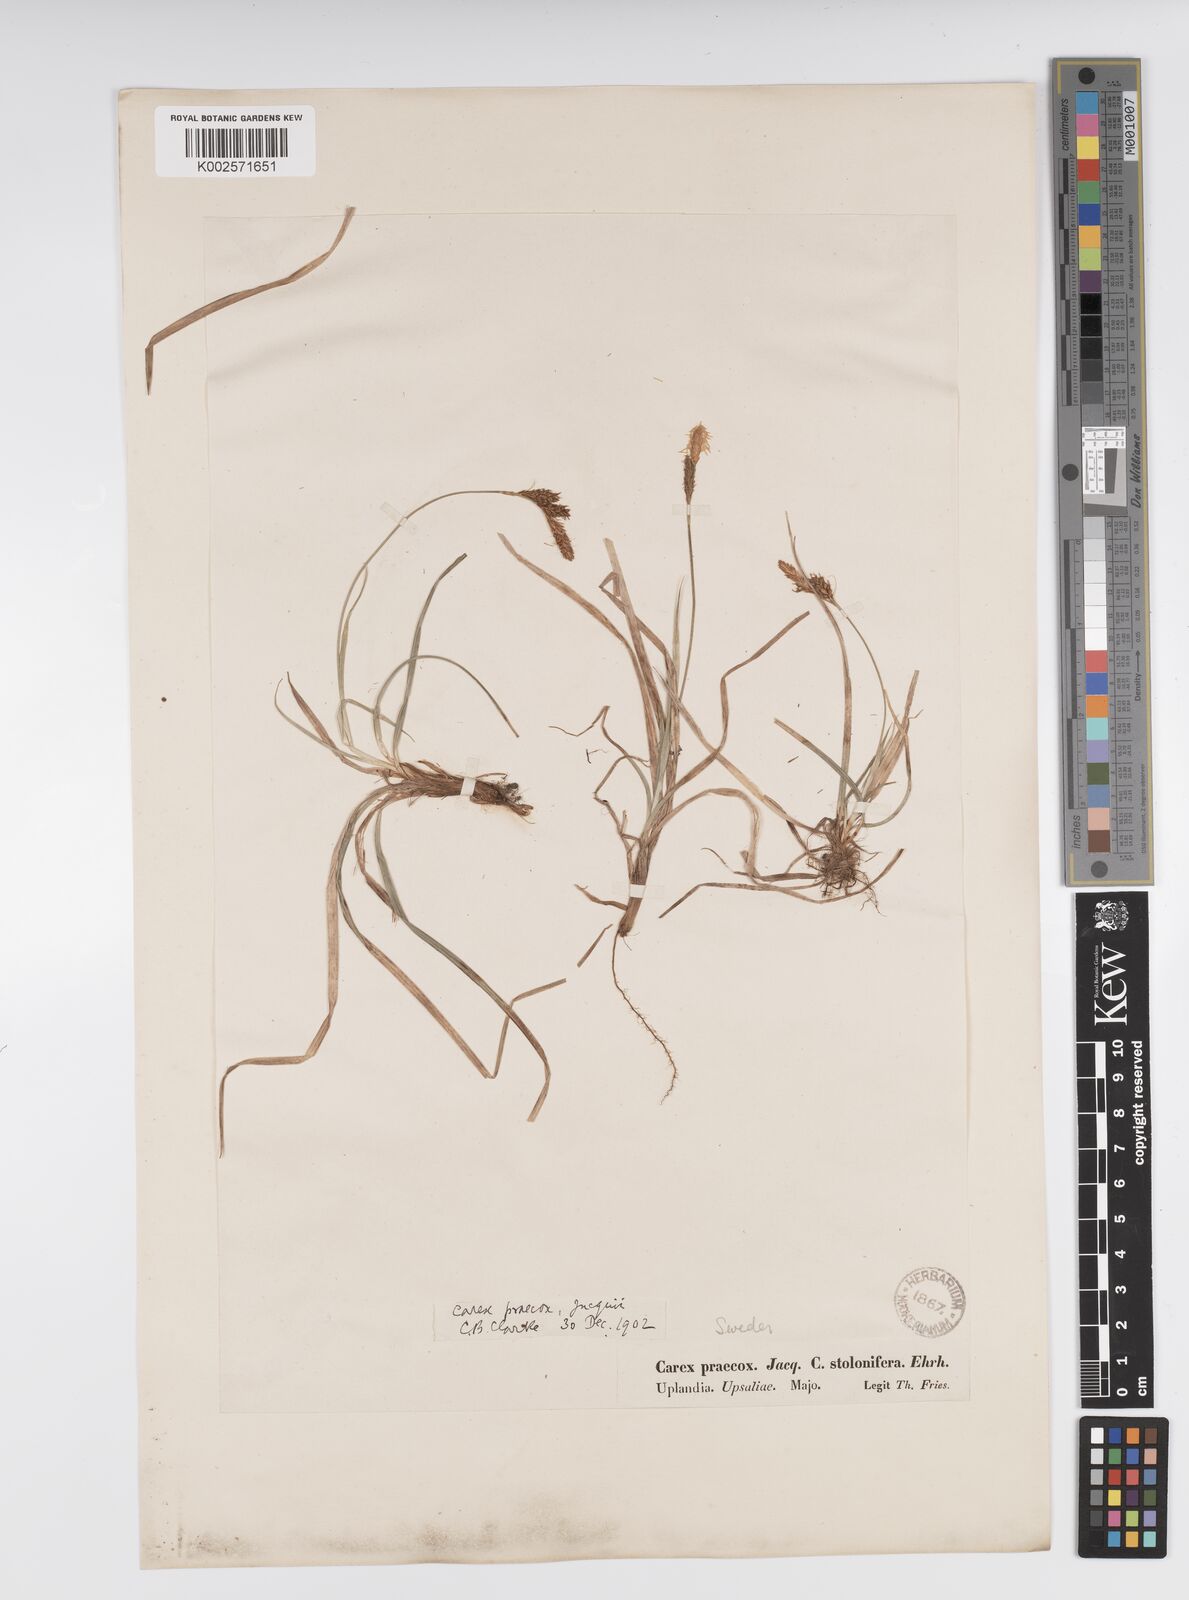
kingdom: Plantae
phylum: Tracheophyta
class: Liliopsida
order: Poales
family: Cyperaceae
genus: Carex
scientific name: Carex caryophyllea
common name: Spring sedge
